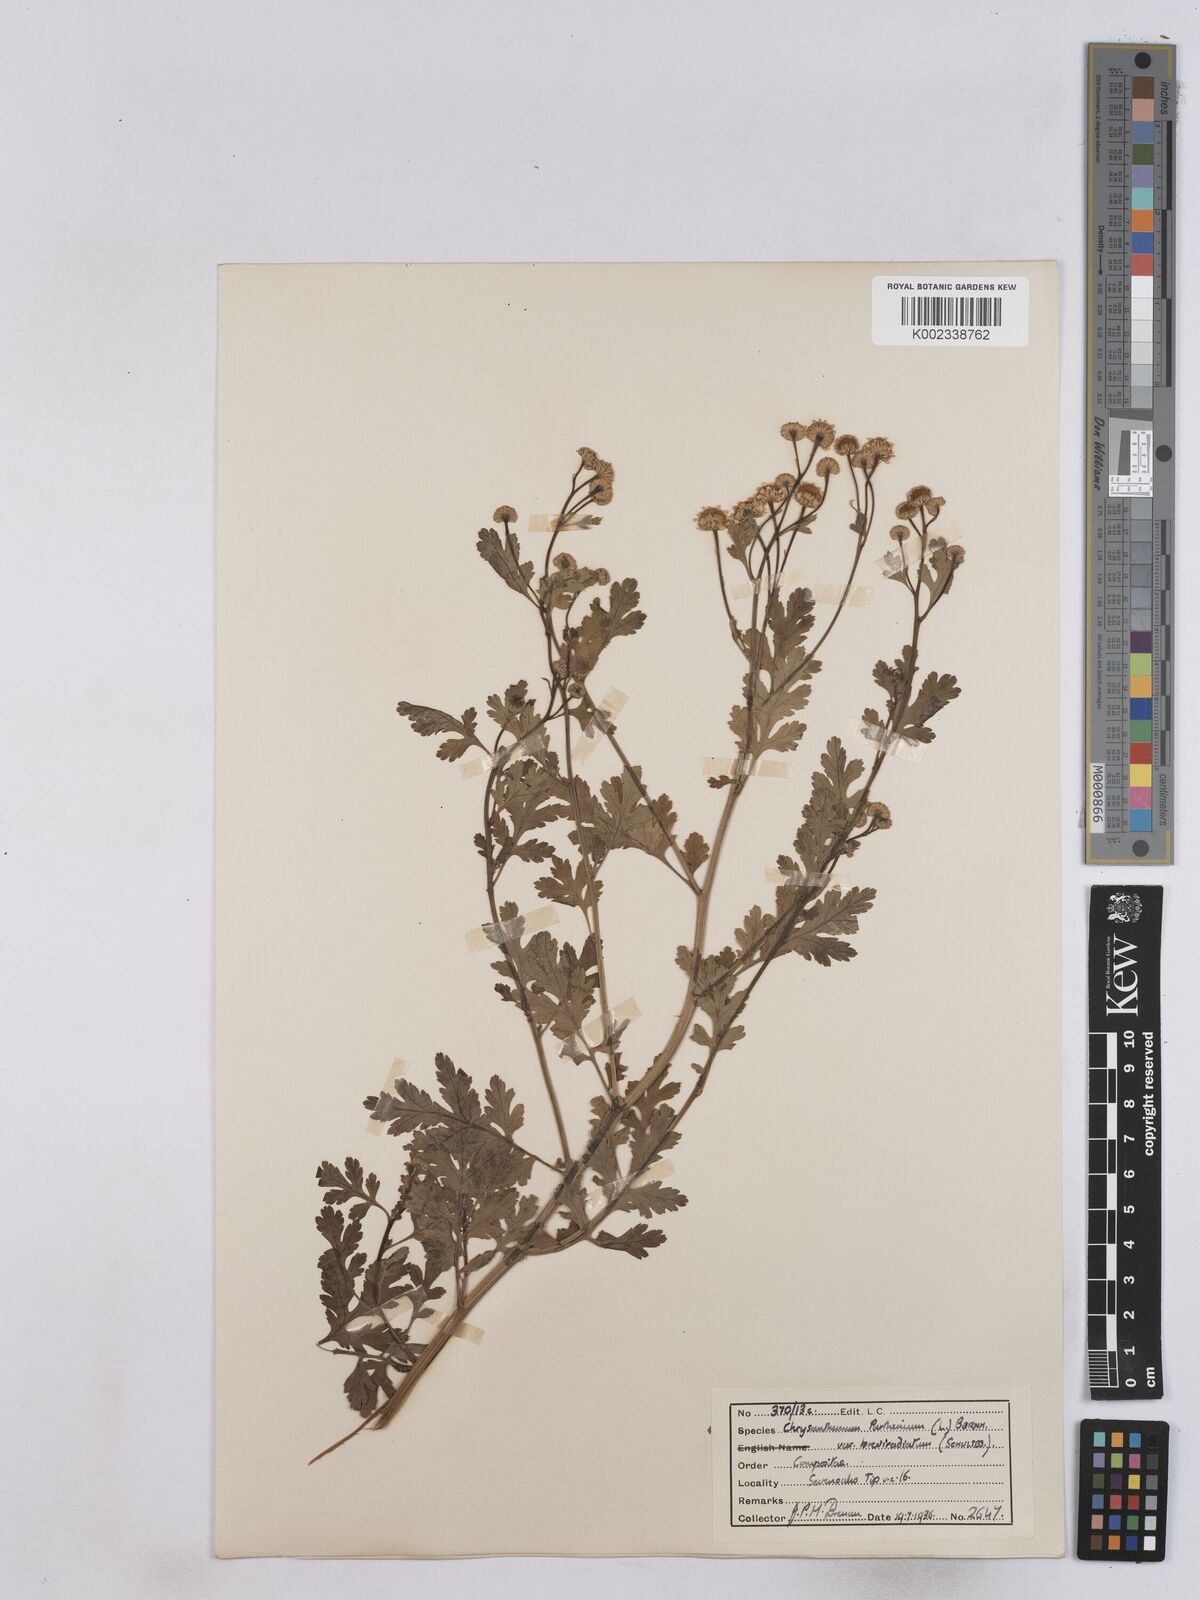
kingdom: Plantae
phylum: Tracheophyta
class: Magnoliopsida
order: Asterales
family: Asteraceae
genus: Tanacetum
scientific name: Tanacetum parthenium
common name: Feverfew
